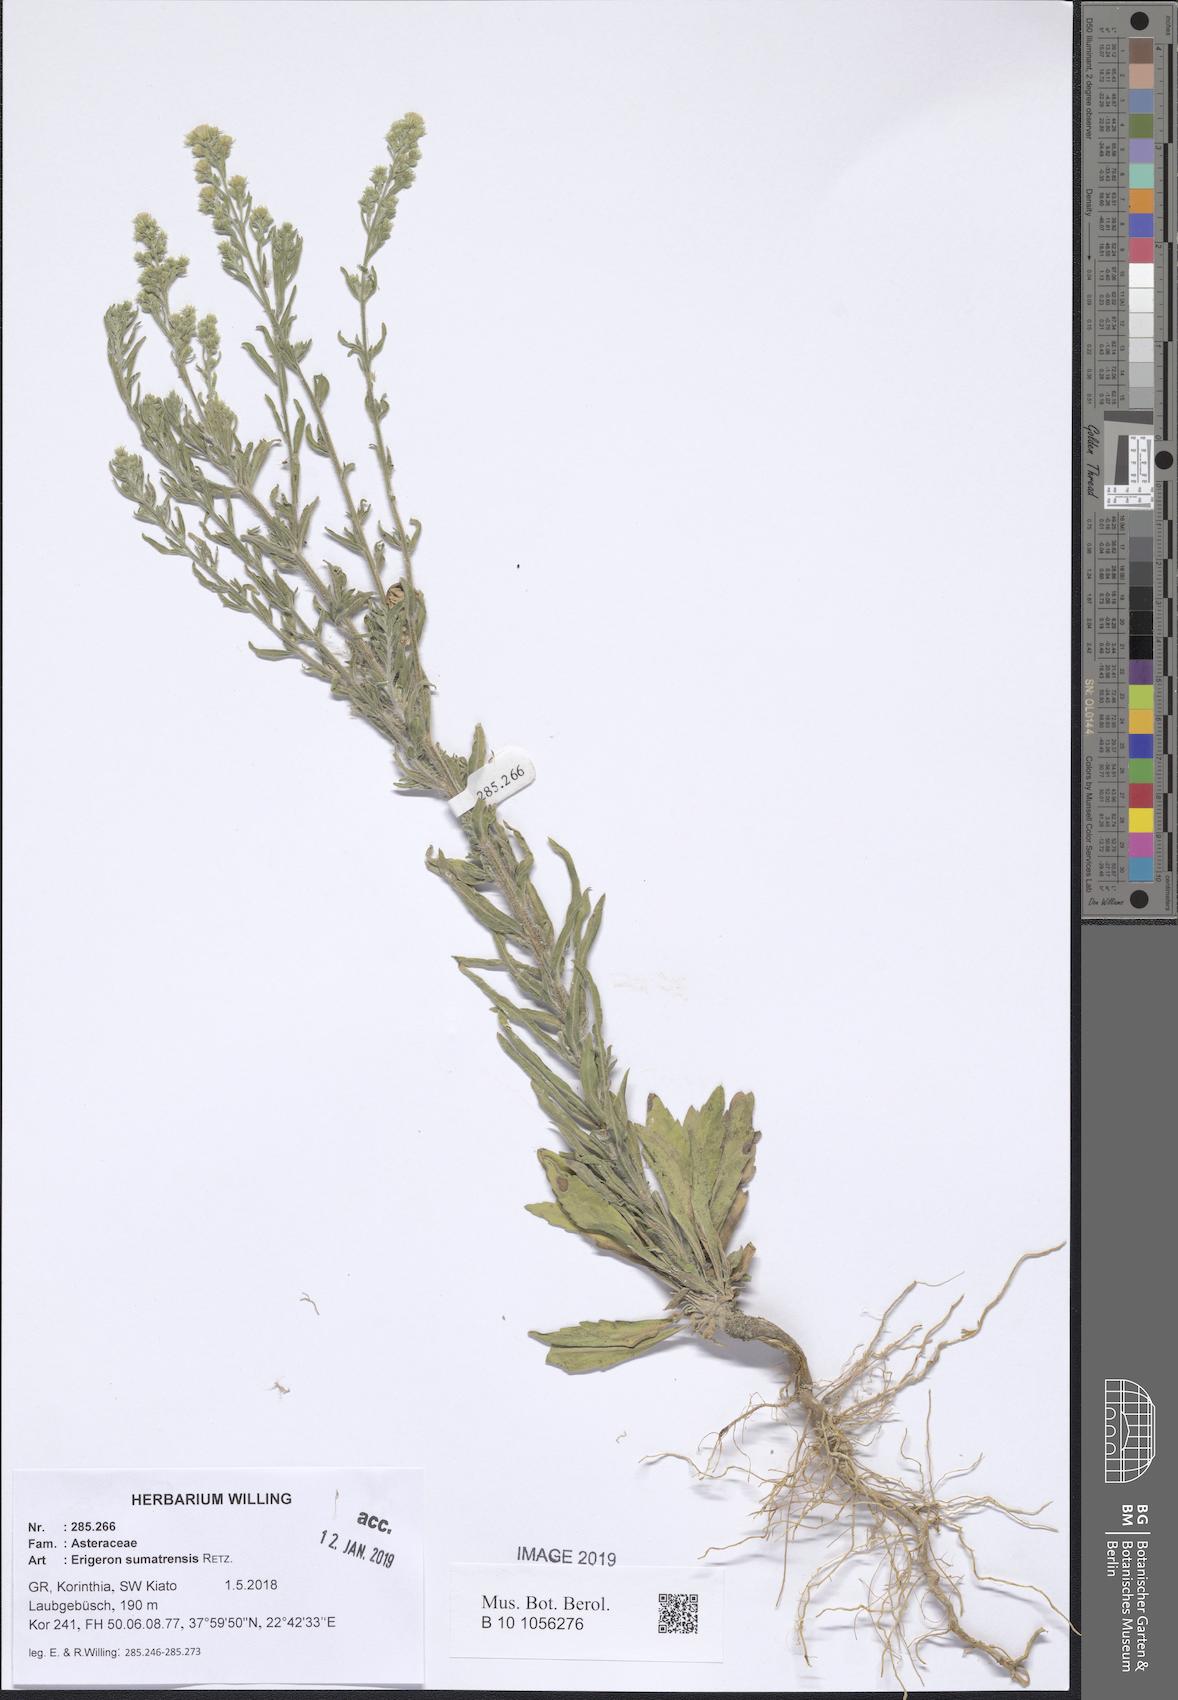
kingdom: Plantae
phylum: Tracheophyta
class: Magnoliopsida
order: Asterales
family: Asteraceae
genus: Erigeron
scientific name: Erigeron sumatrensis
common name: Daisy
